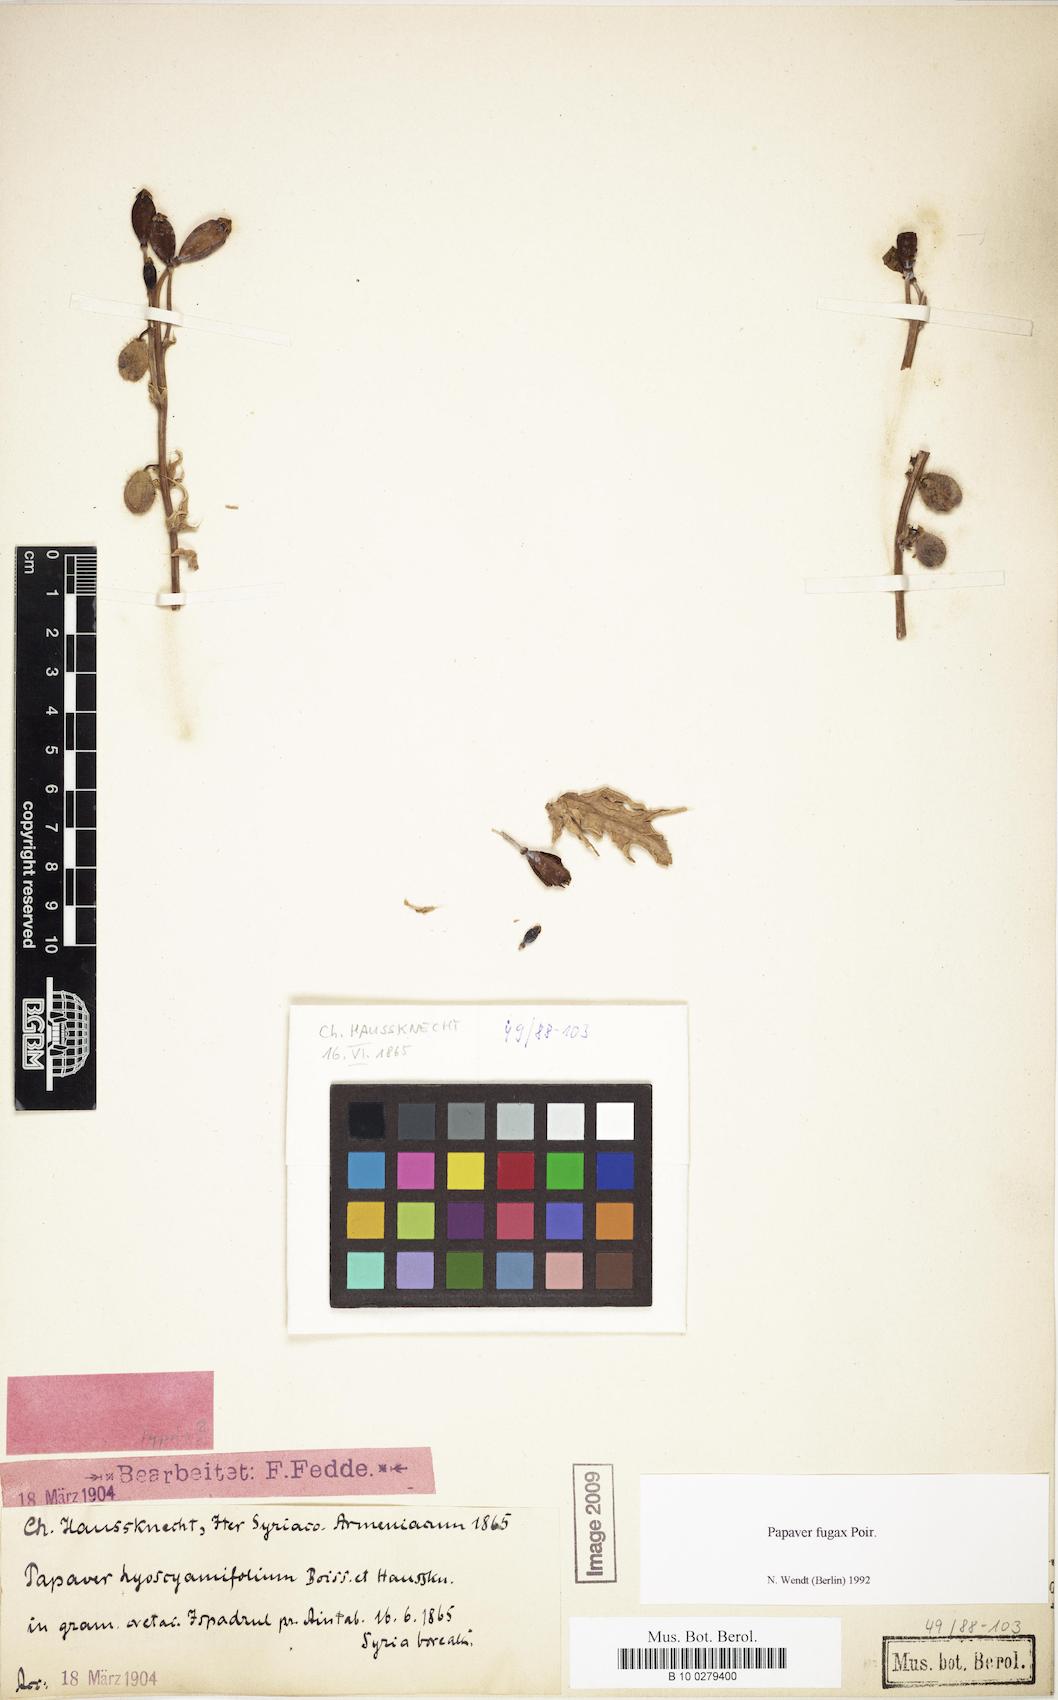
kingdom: Plantae
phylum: Tracheophyta
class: Magnoliopsida
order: Ranunculales
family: Papaveraceae
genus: Papaver
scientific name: Papaver armeniacum
